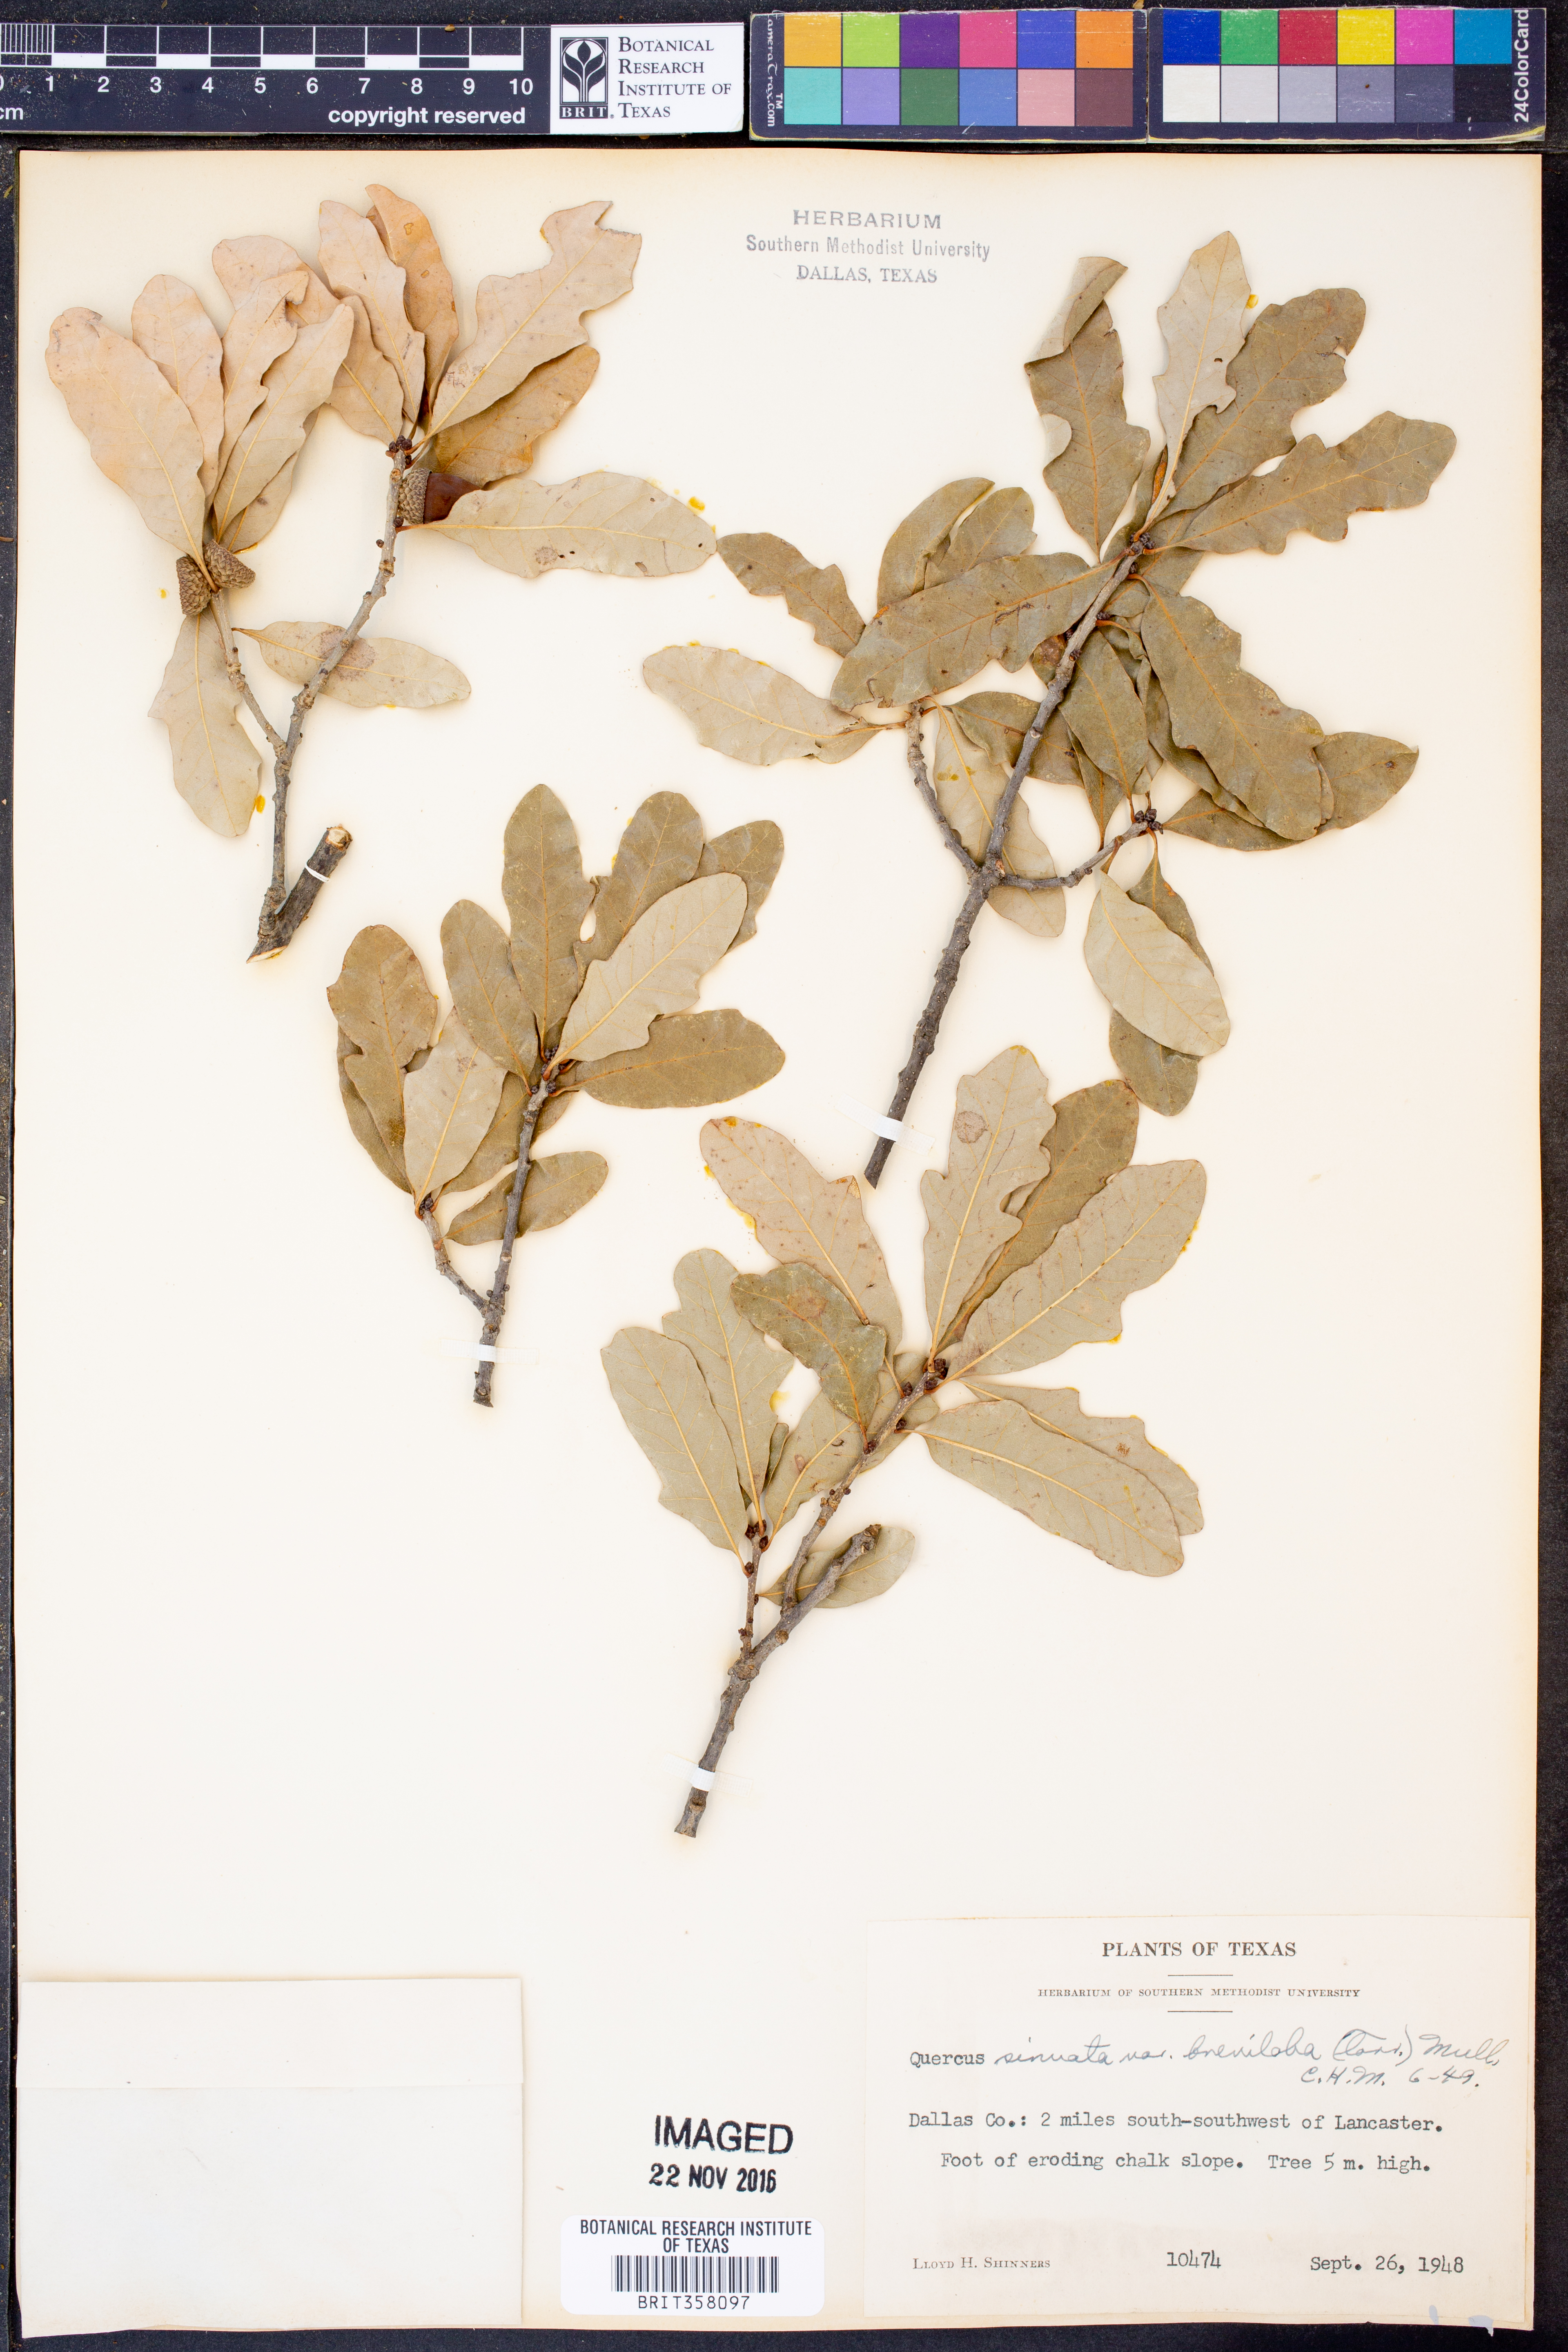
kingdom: Plantae
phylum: Tracheophyta
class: Magnoliopsida
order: Fagales
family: Fagaceae
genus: Quercus
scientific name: Quercus sinuata
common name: Durand oak
